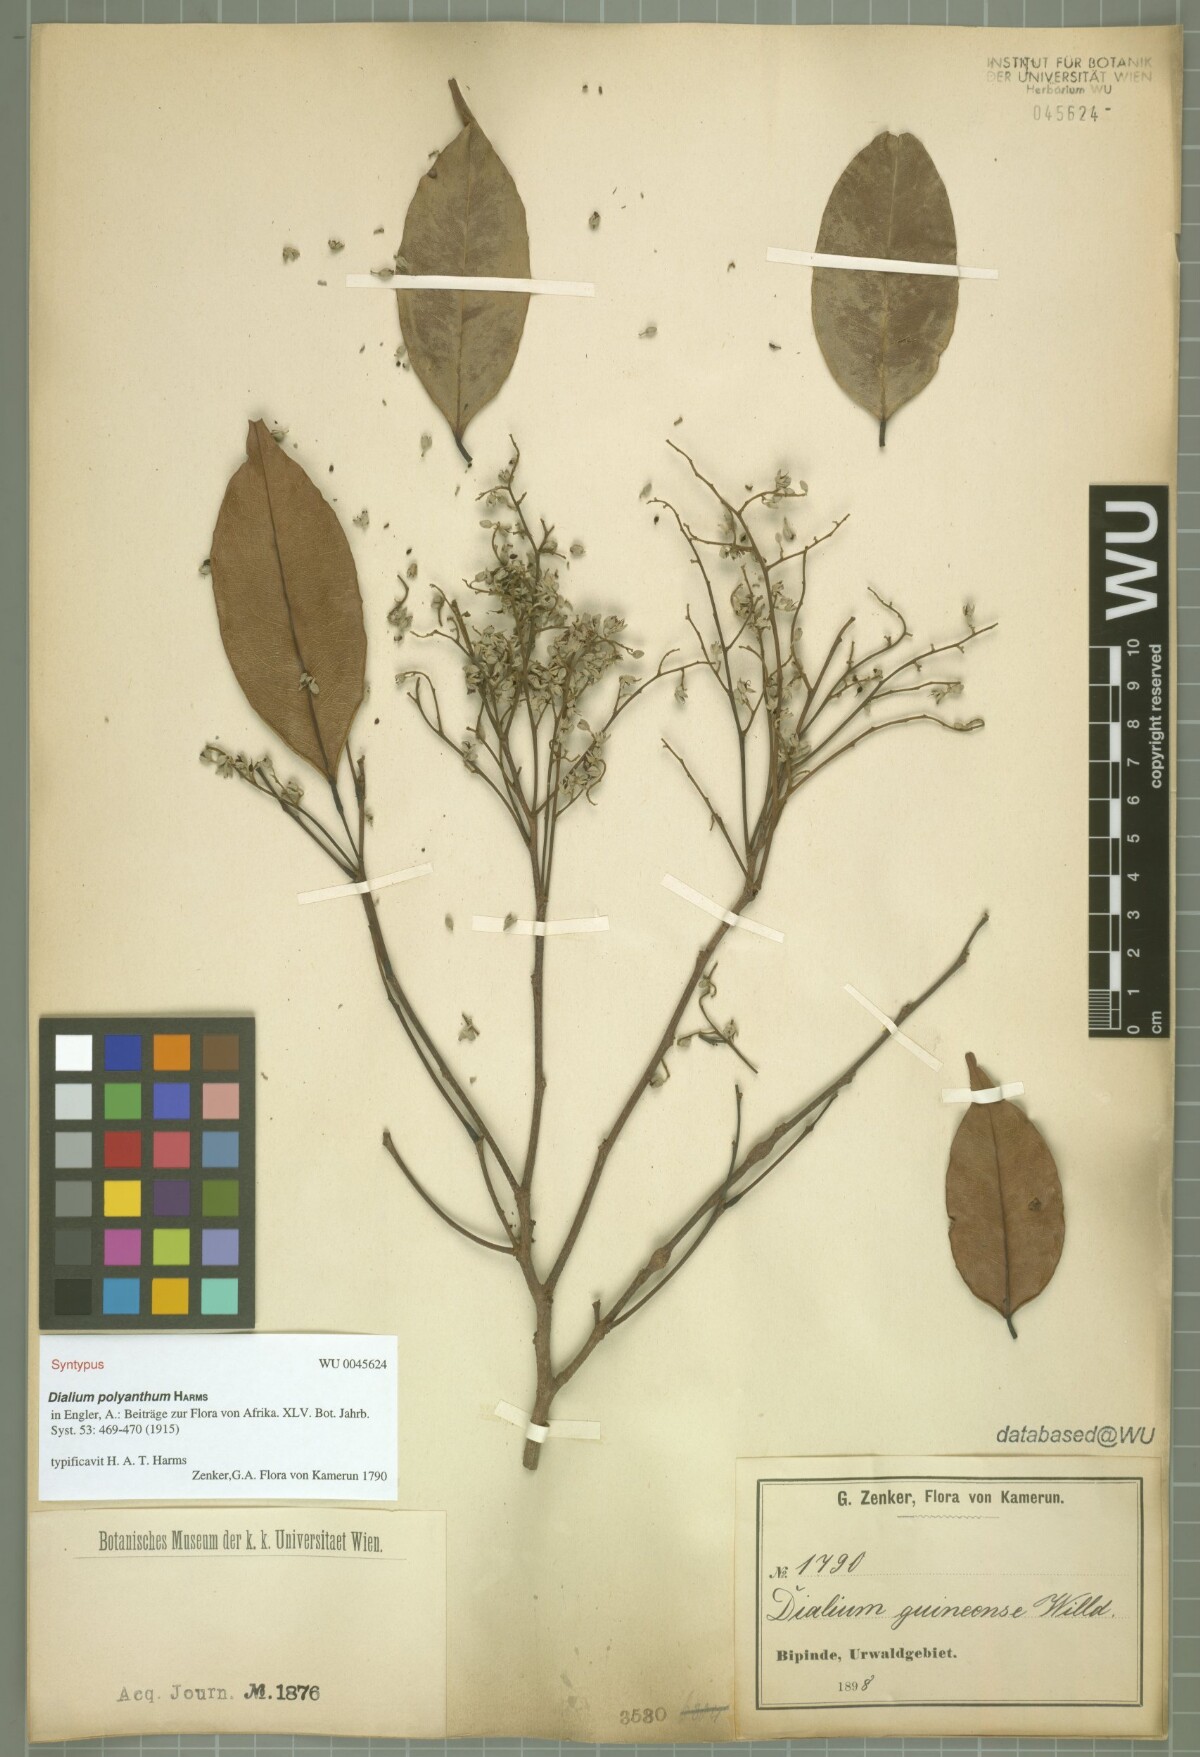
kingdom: Plantae
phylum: Tracheophyta
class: Magnoliopsida
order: Fabales
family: Fabaceae
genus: Dialium
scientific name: Dialium polyanthum
